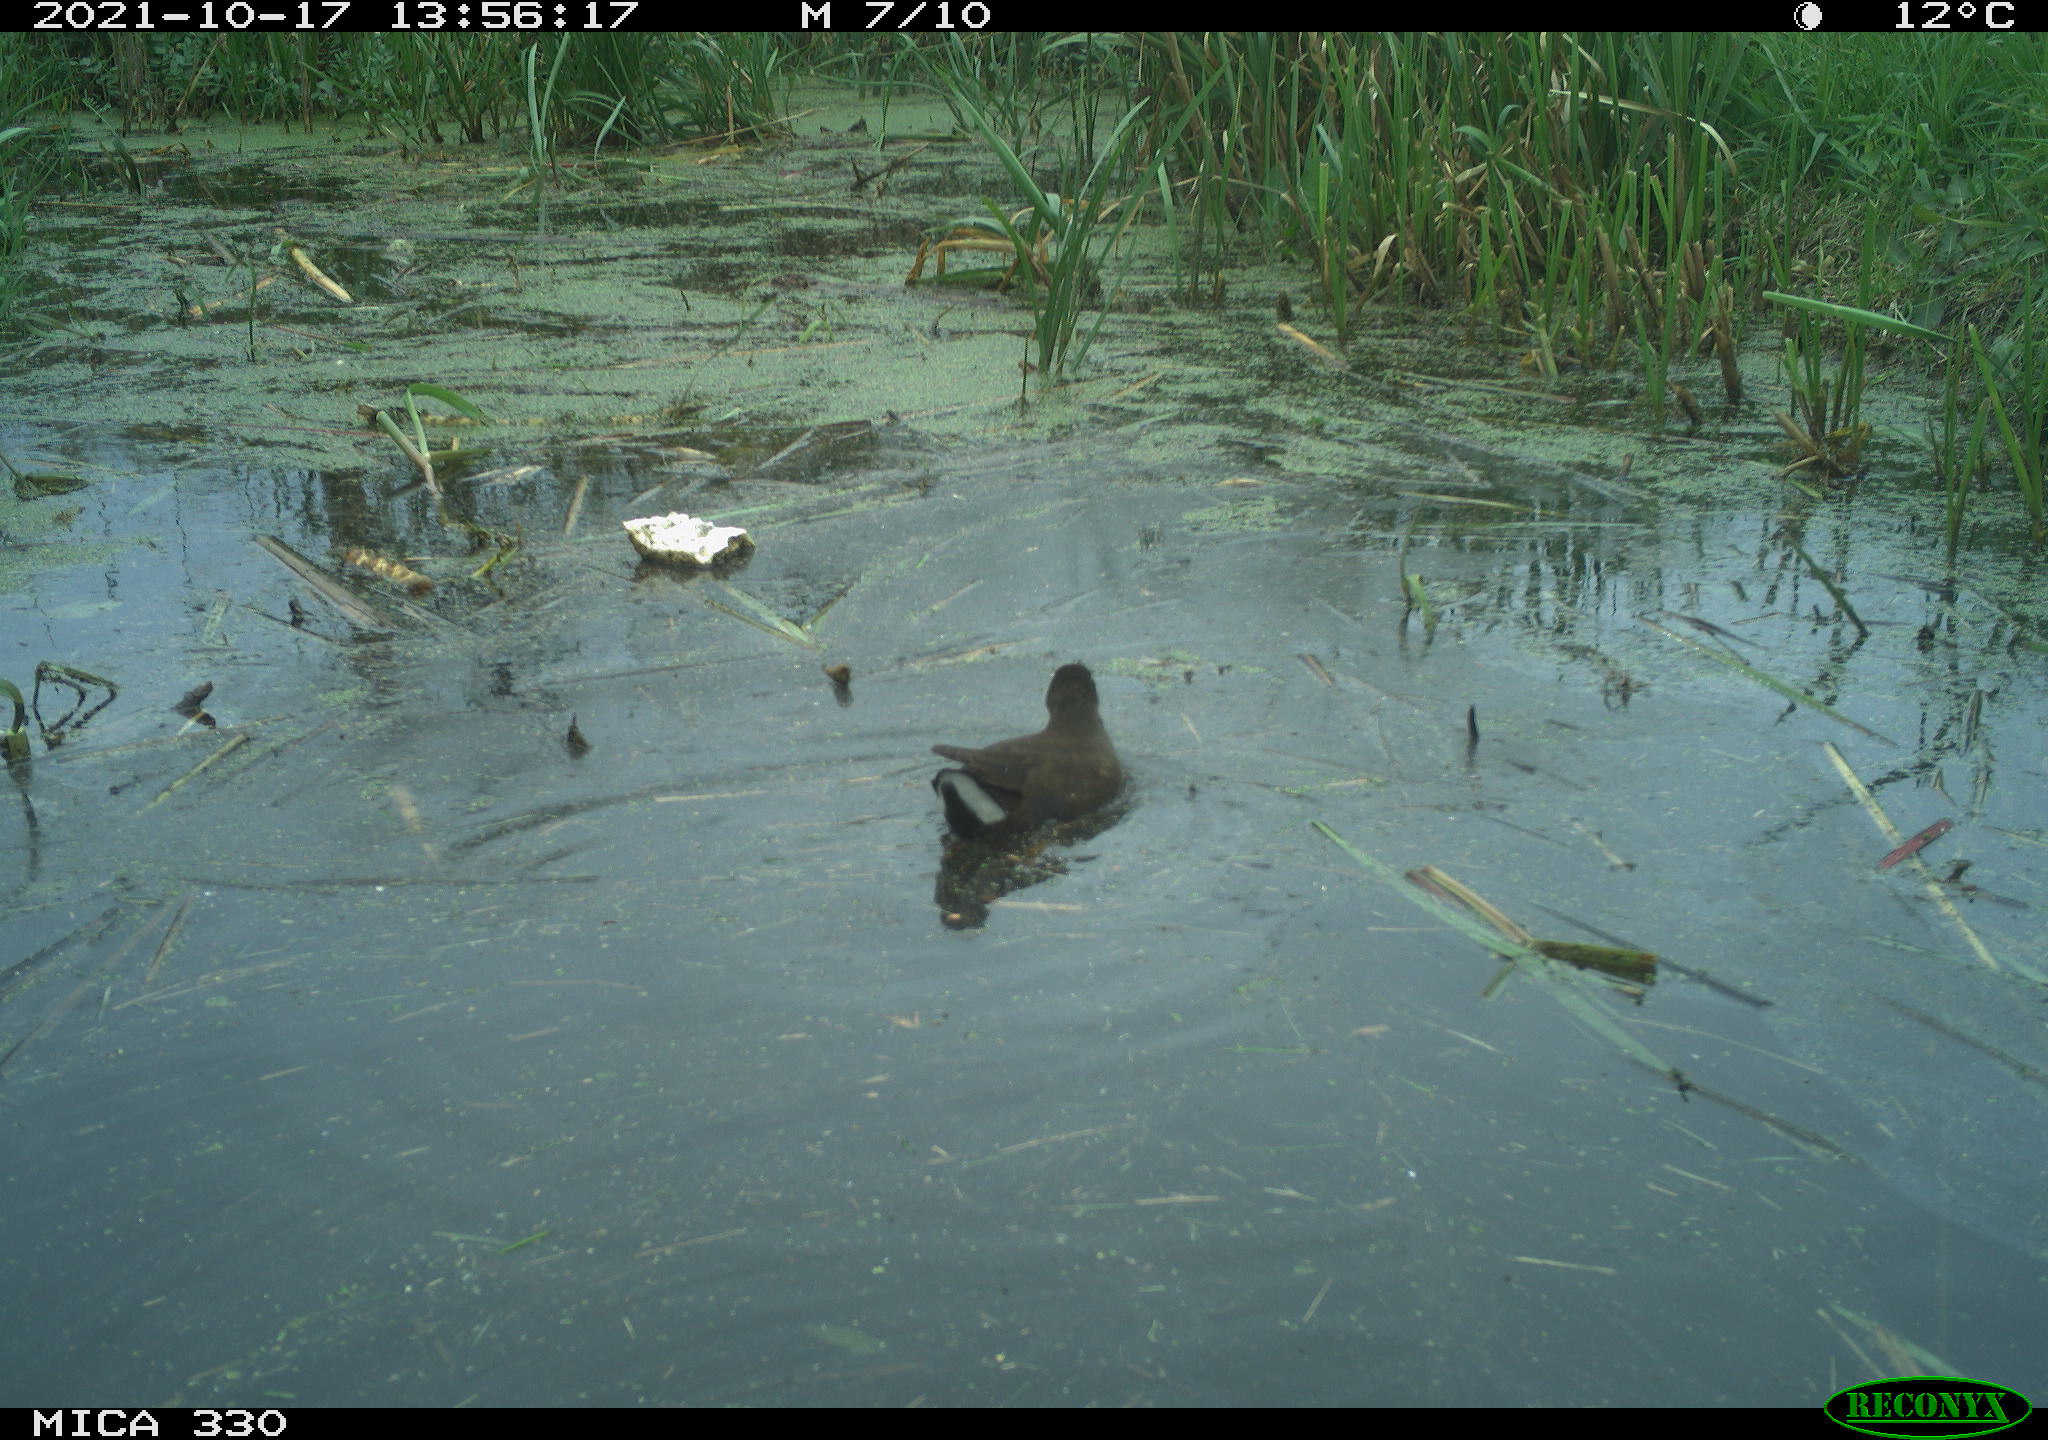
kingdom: Animalia
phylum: Chordata
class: Aves
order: Gruiformes
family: Rallidae
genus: Gallinula
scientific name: Gallinula chloropus
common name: Common moorhen
